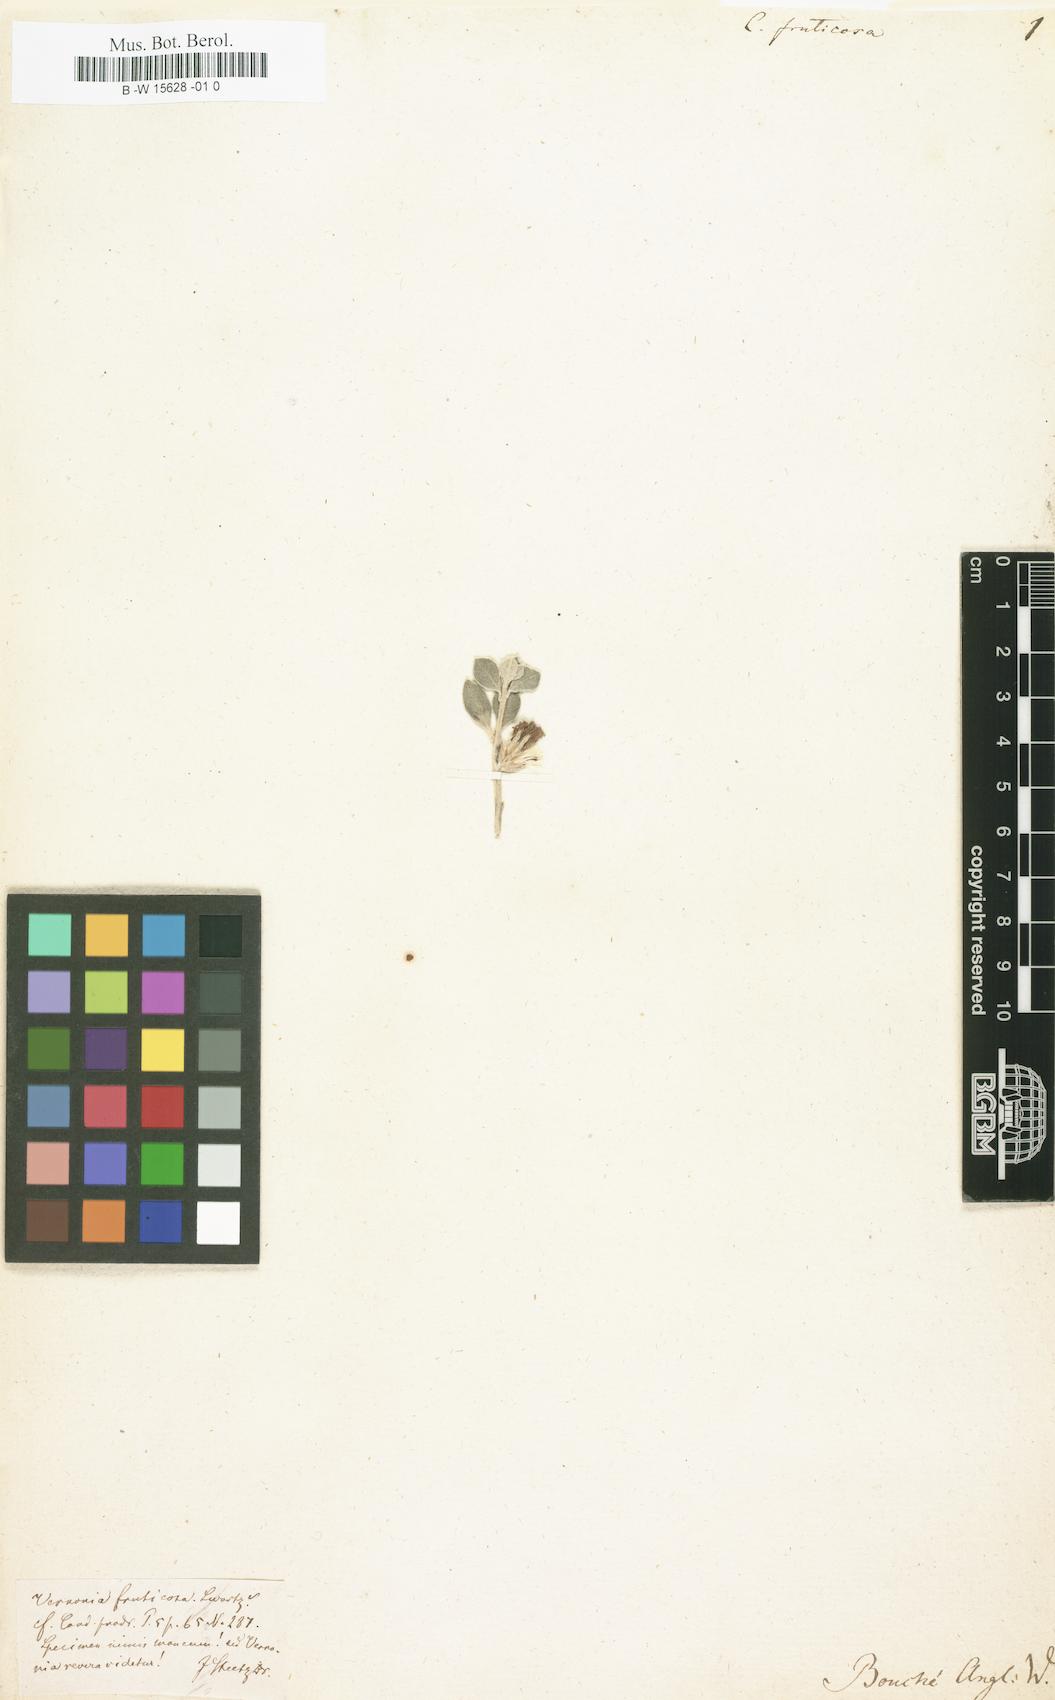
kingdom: Plantae
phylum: Tracheophyta
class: Magnoliopsida
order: Asterales
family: Asteraceae
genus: Lepidaploa
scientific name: Lepidaploa fruticosa
